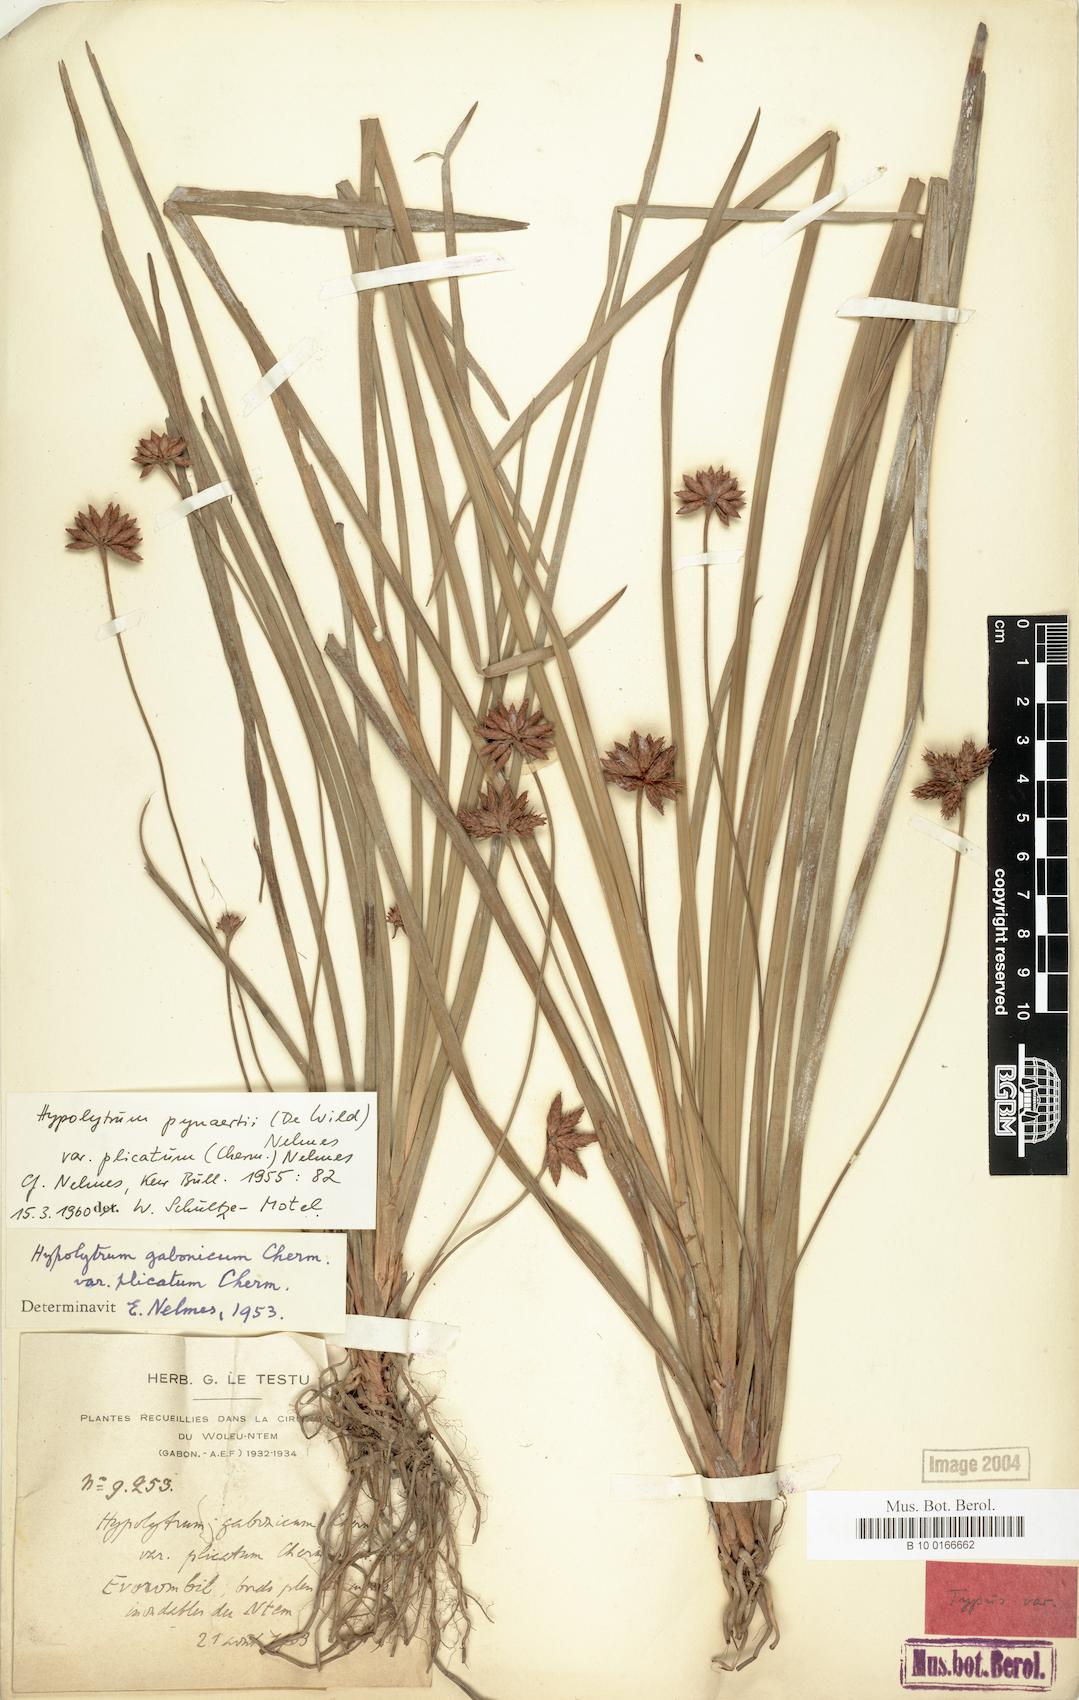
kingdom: Plantae
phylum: Tracheophyta
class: Liliopsida
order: Poales
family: Cyperaceae
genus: Hypolytrum
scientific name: Hypolytrum pynaertii
